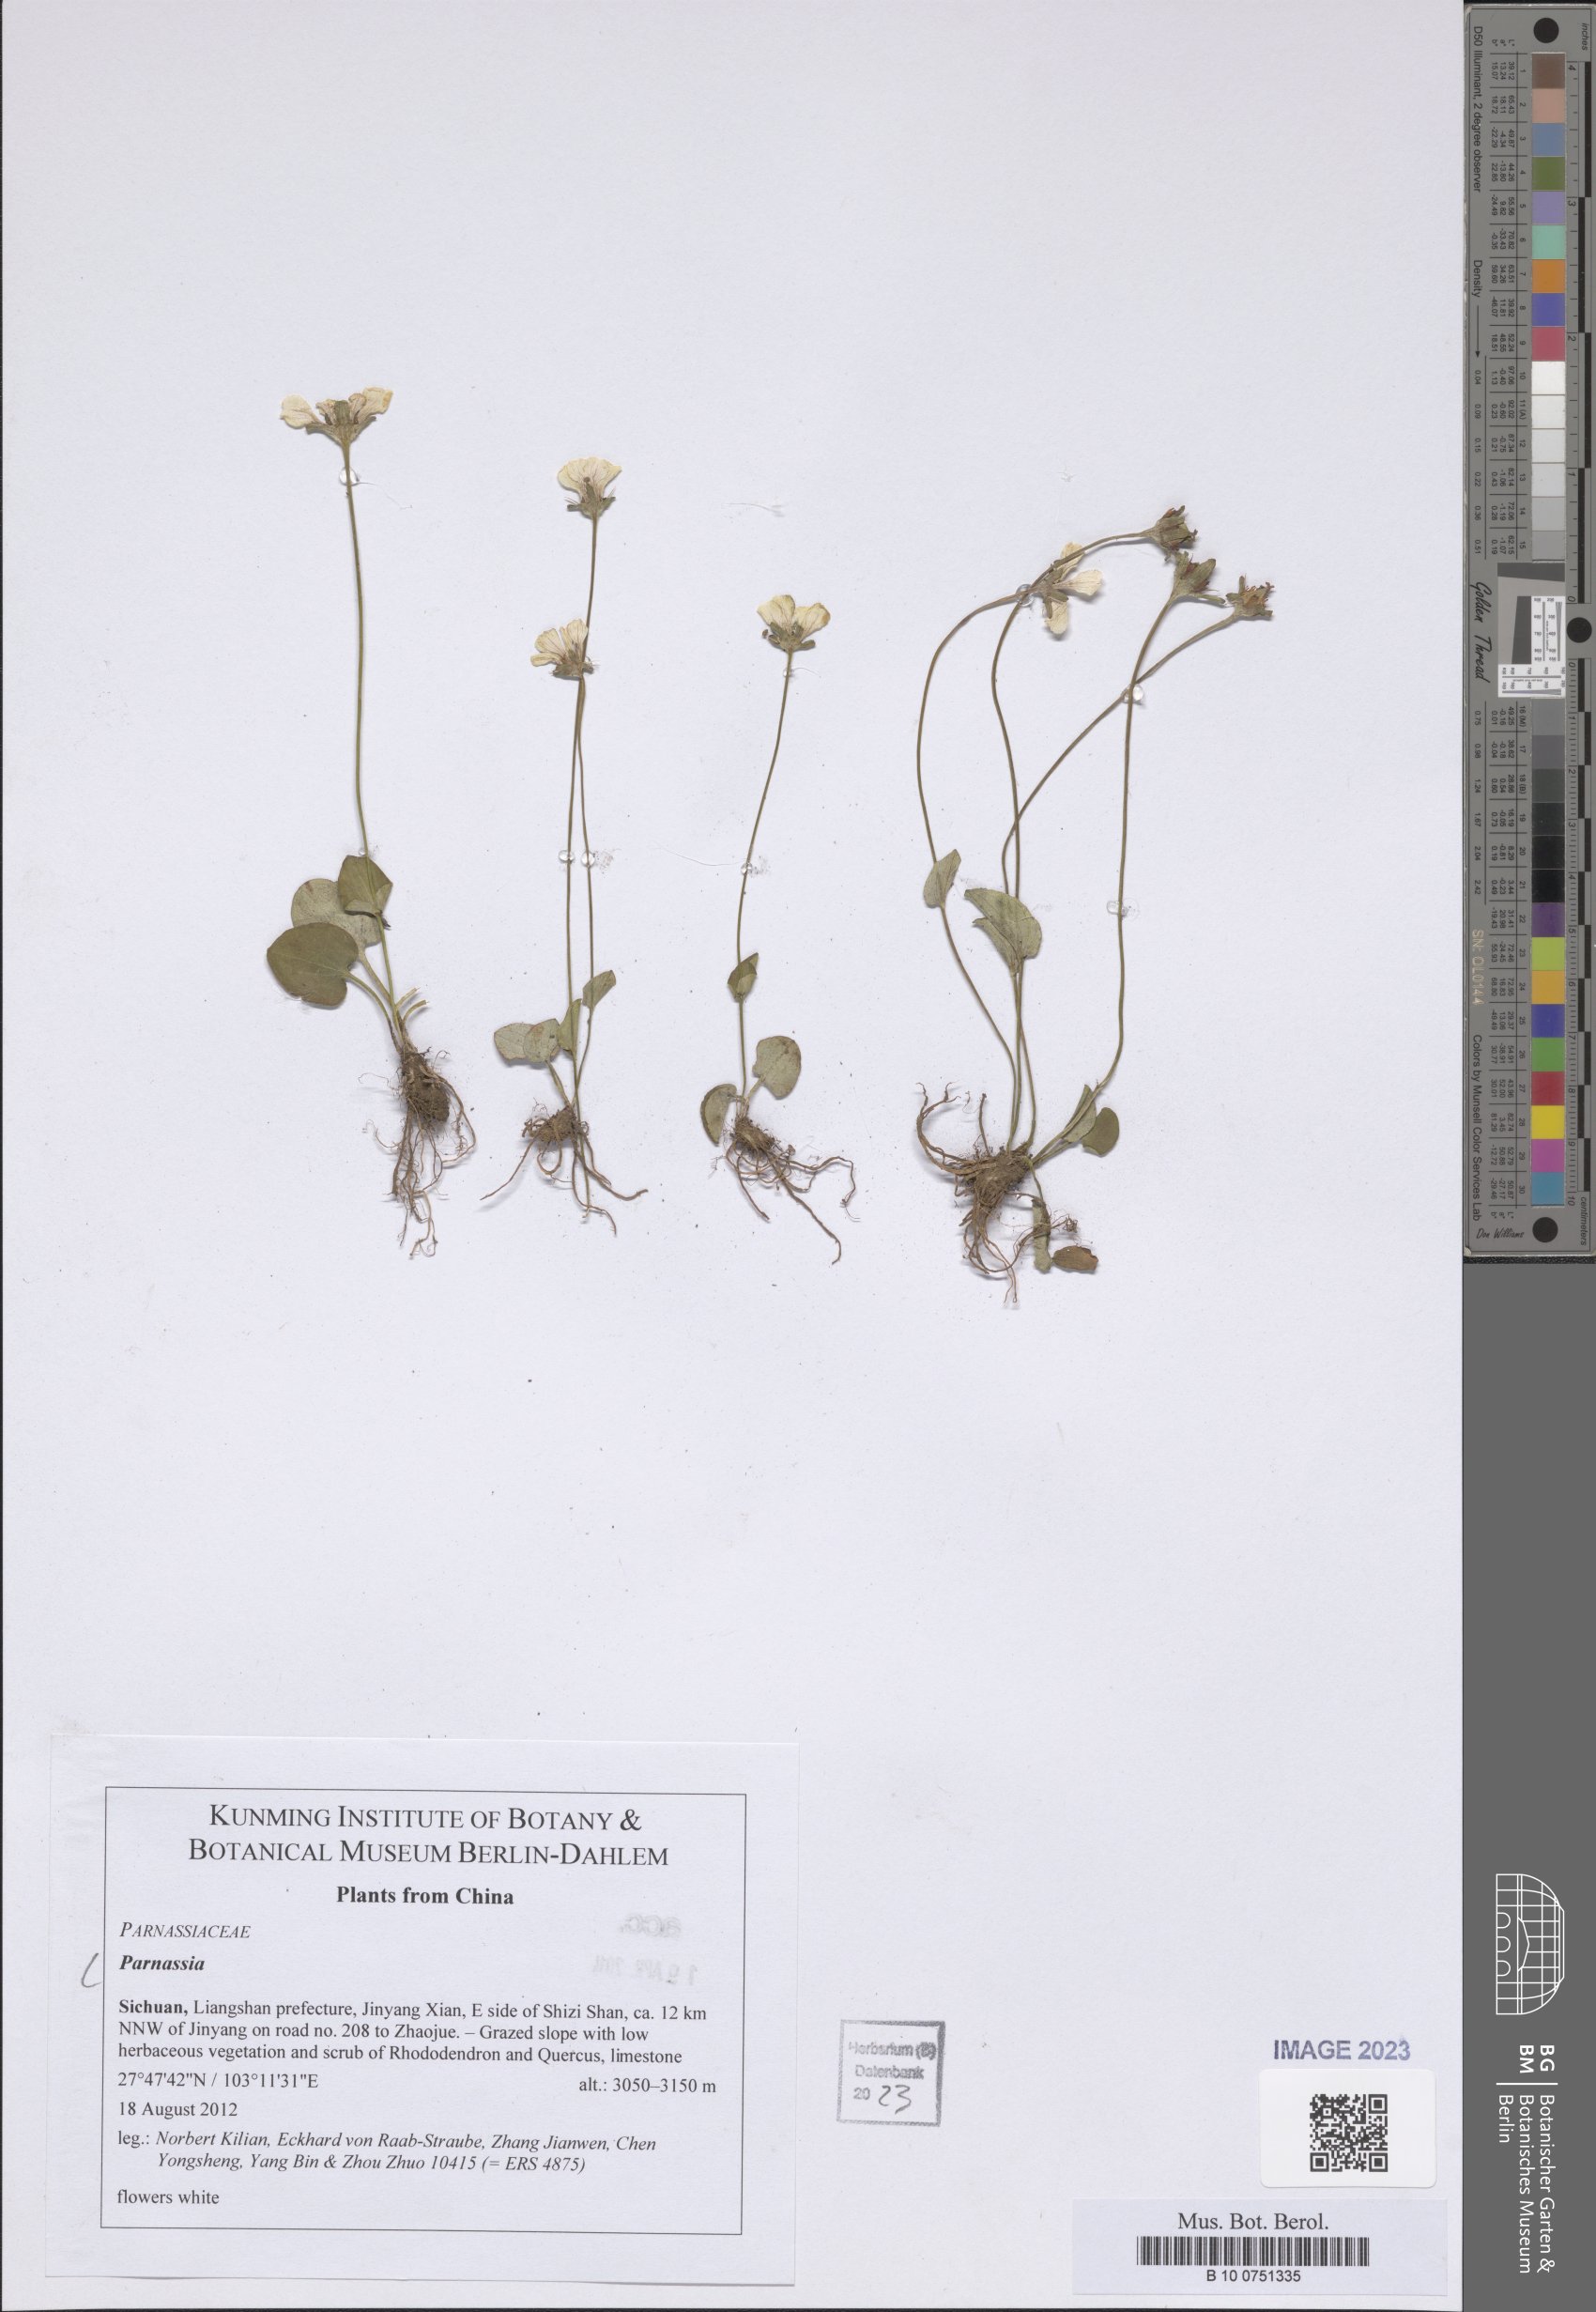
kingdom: Plantae
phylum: Tracheophyta
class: Magnoliopsida
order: Celastrales
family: Parnassiaceae
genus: Parnassia
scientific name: Parnassia
